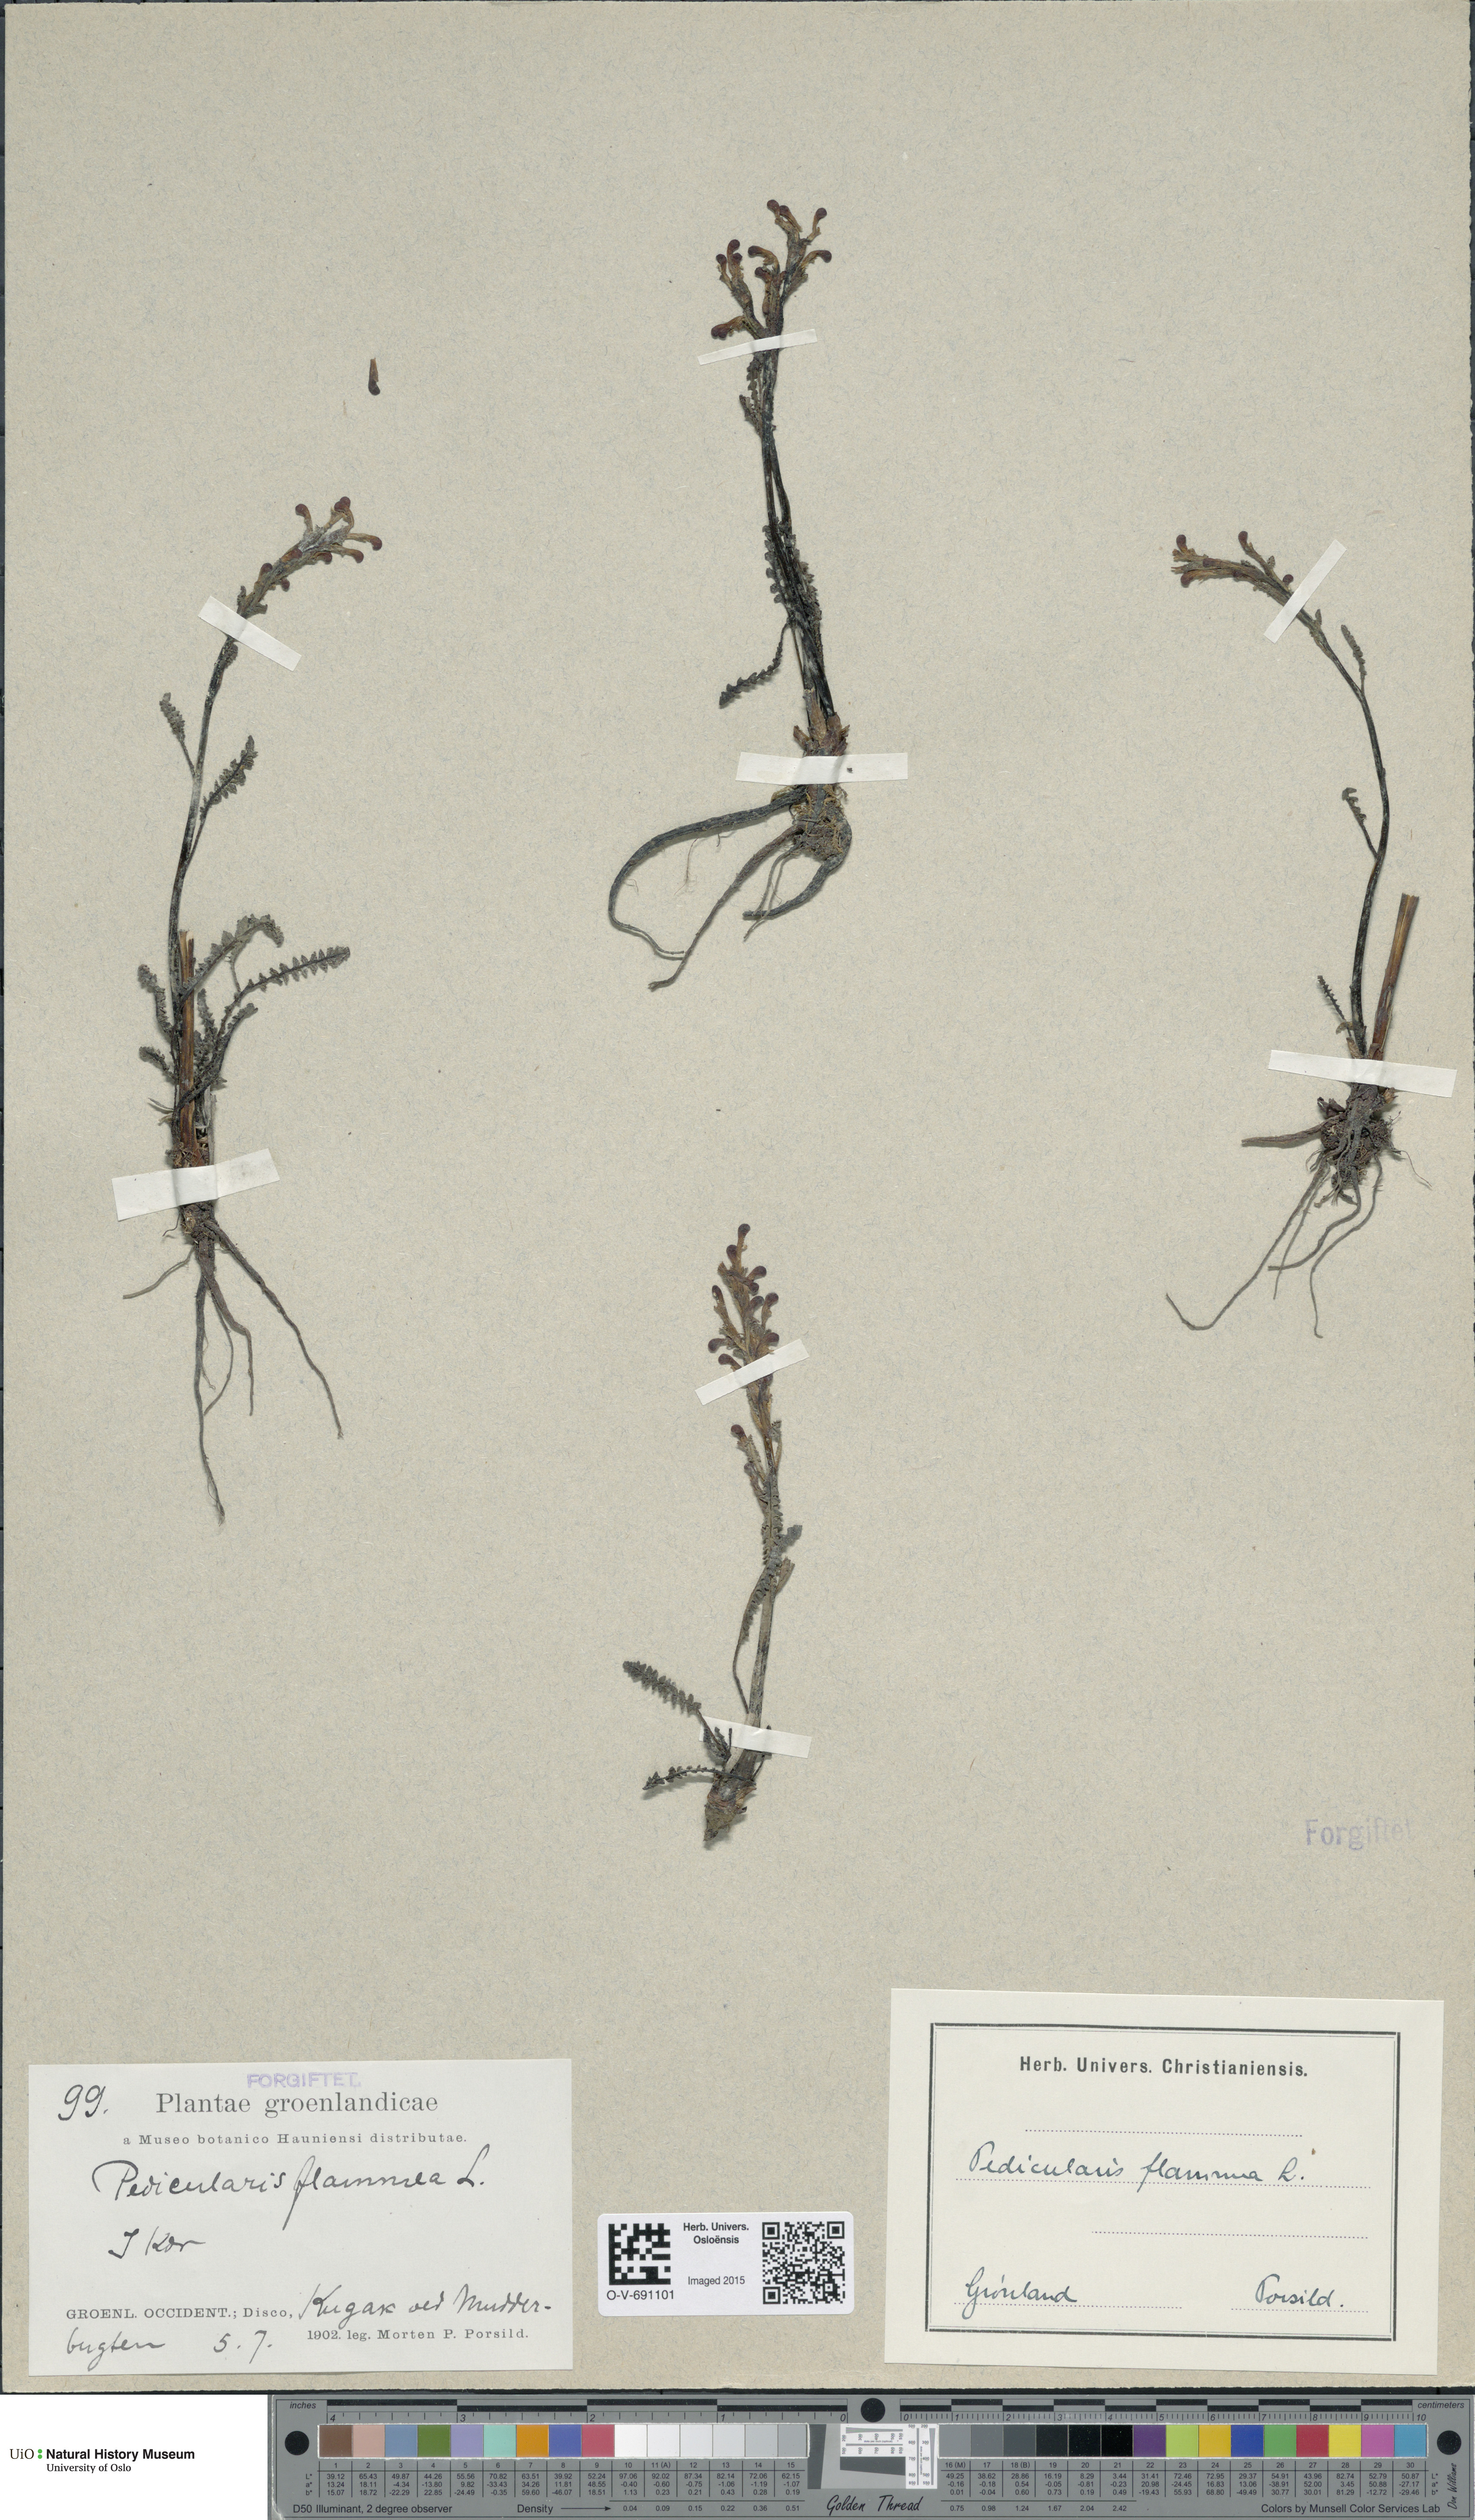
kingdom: Plantae
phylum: Tracheophyta
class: Magnoliopsida
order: Lamiales
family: Orobanchaceae
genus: Pedicularis
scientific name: Pedicularis flammea
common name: Flame-coloured lousewort
